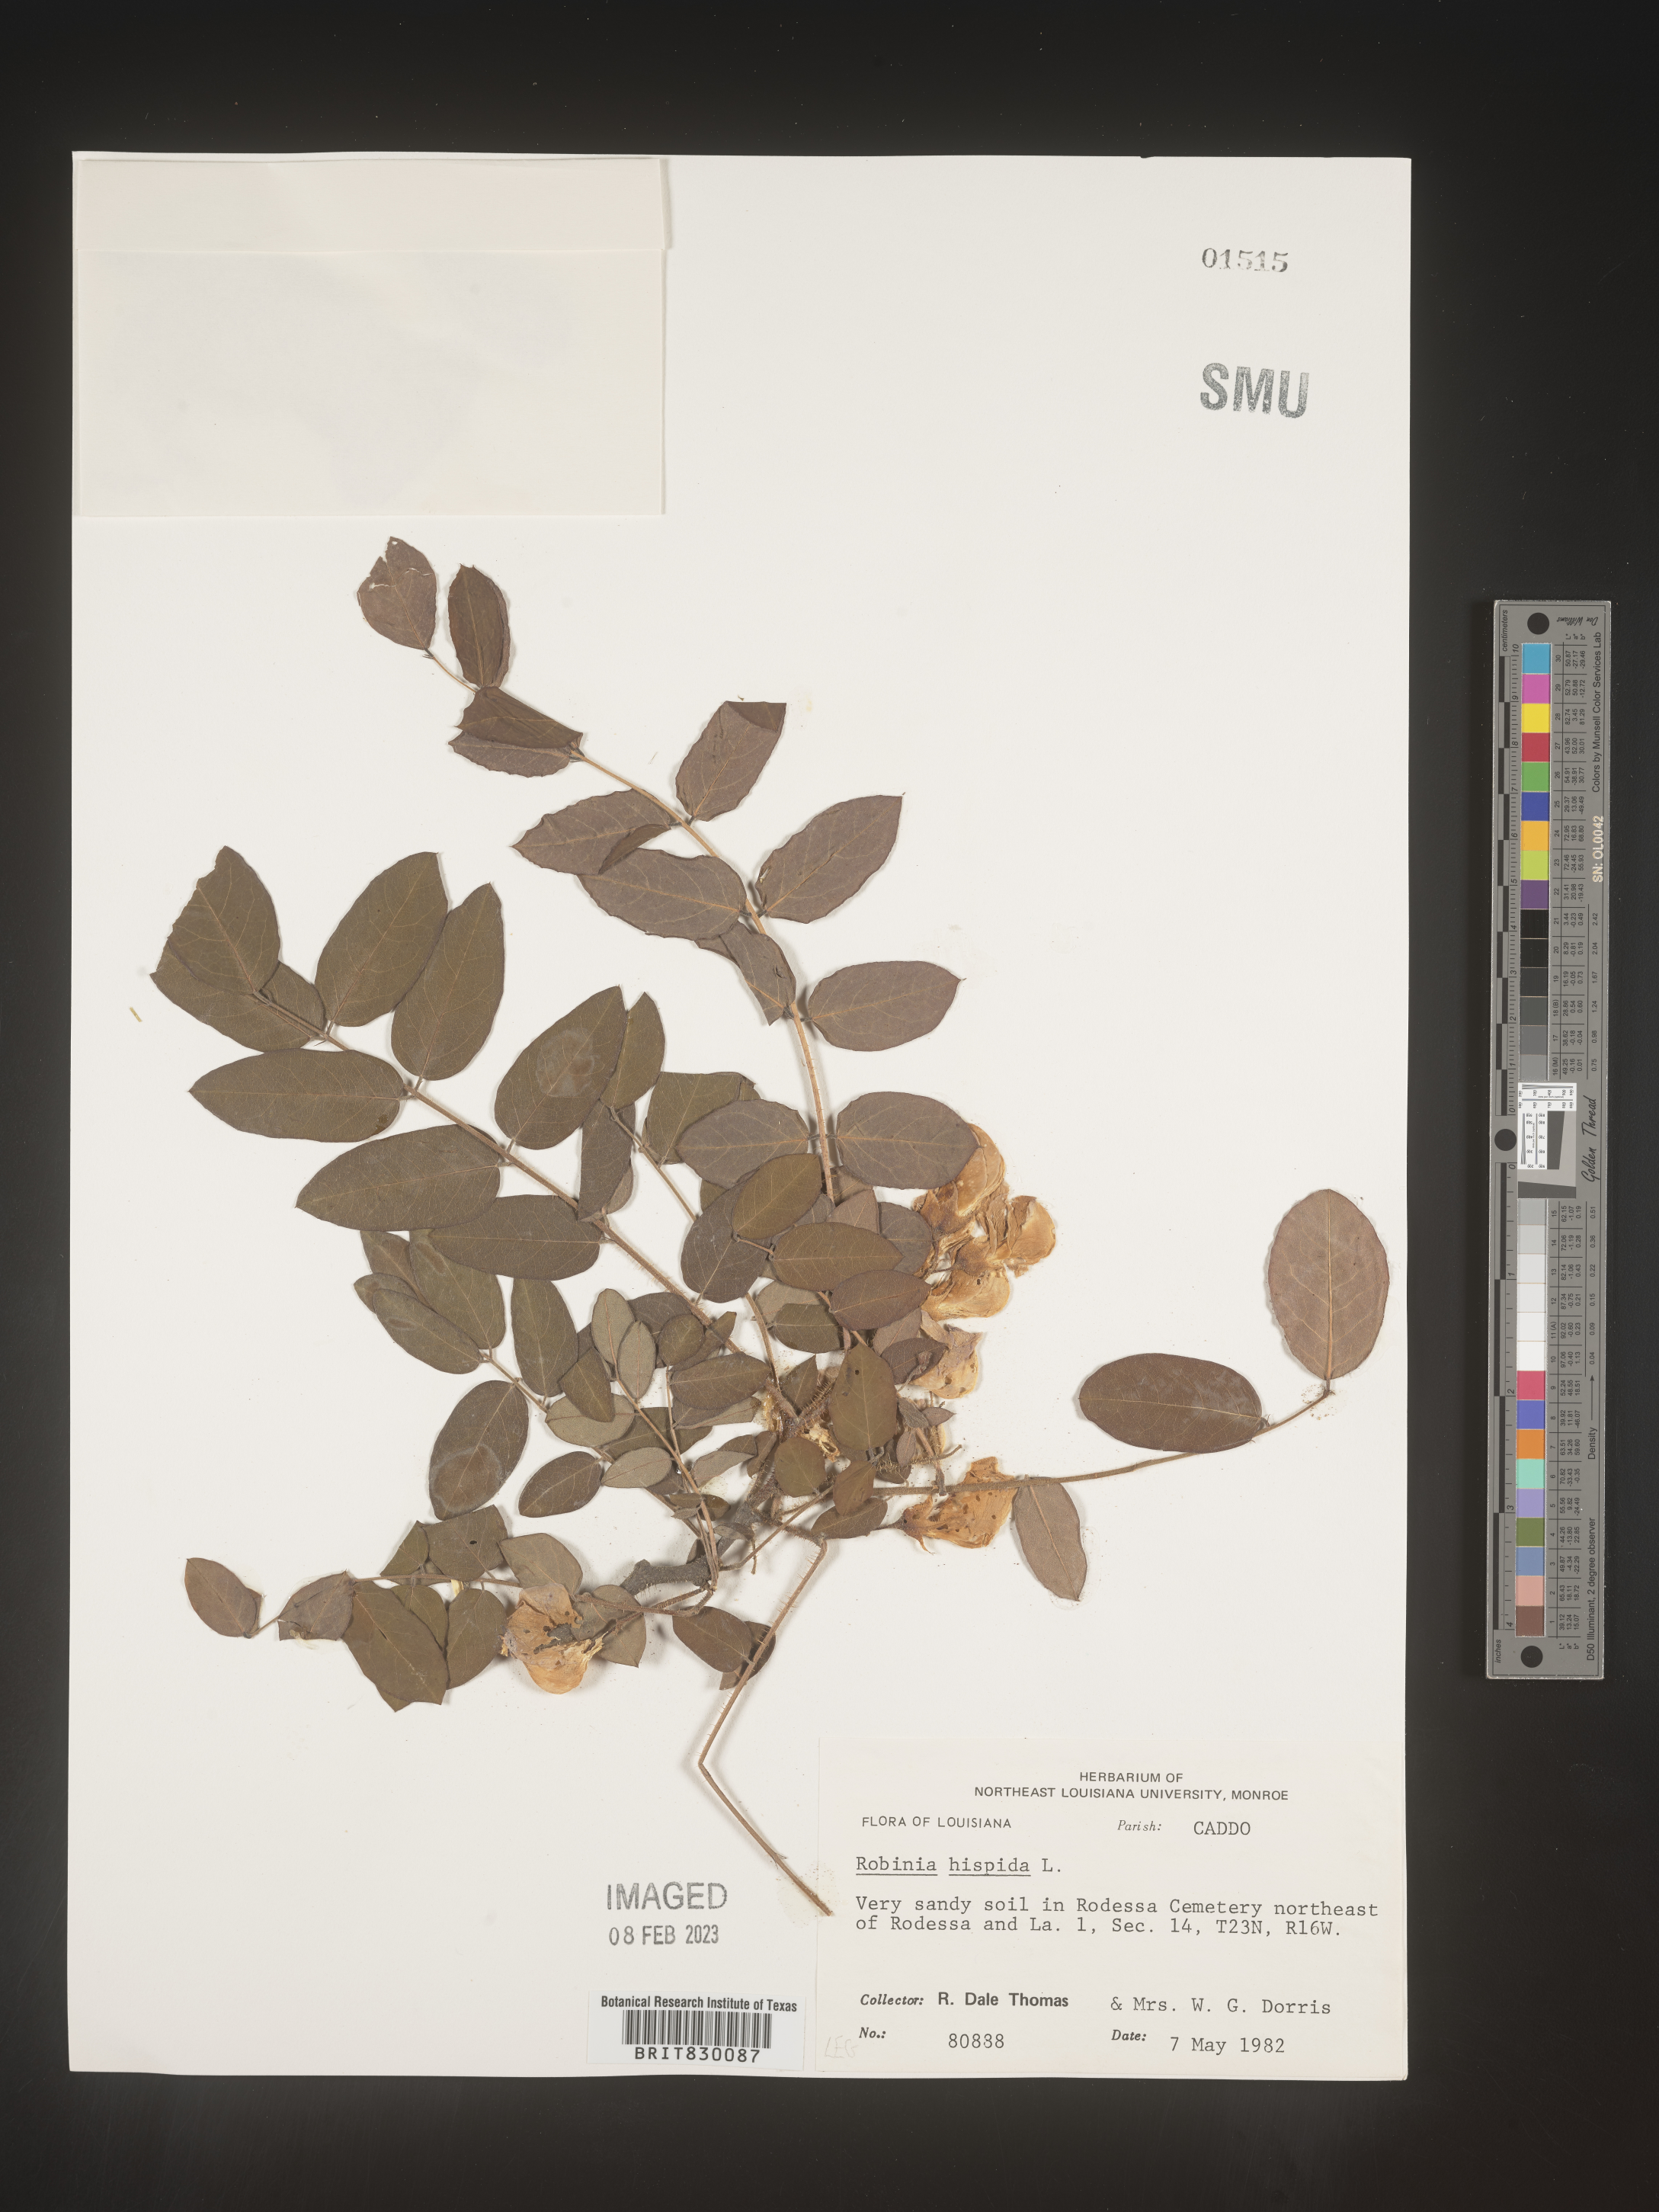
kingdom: Plantae
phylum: Tracheophyta
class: Magnoliopsida
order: Fabales
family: Fabaceae
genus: Robinia
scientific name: Robinia hispida
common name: Bristly locust
